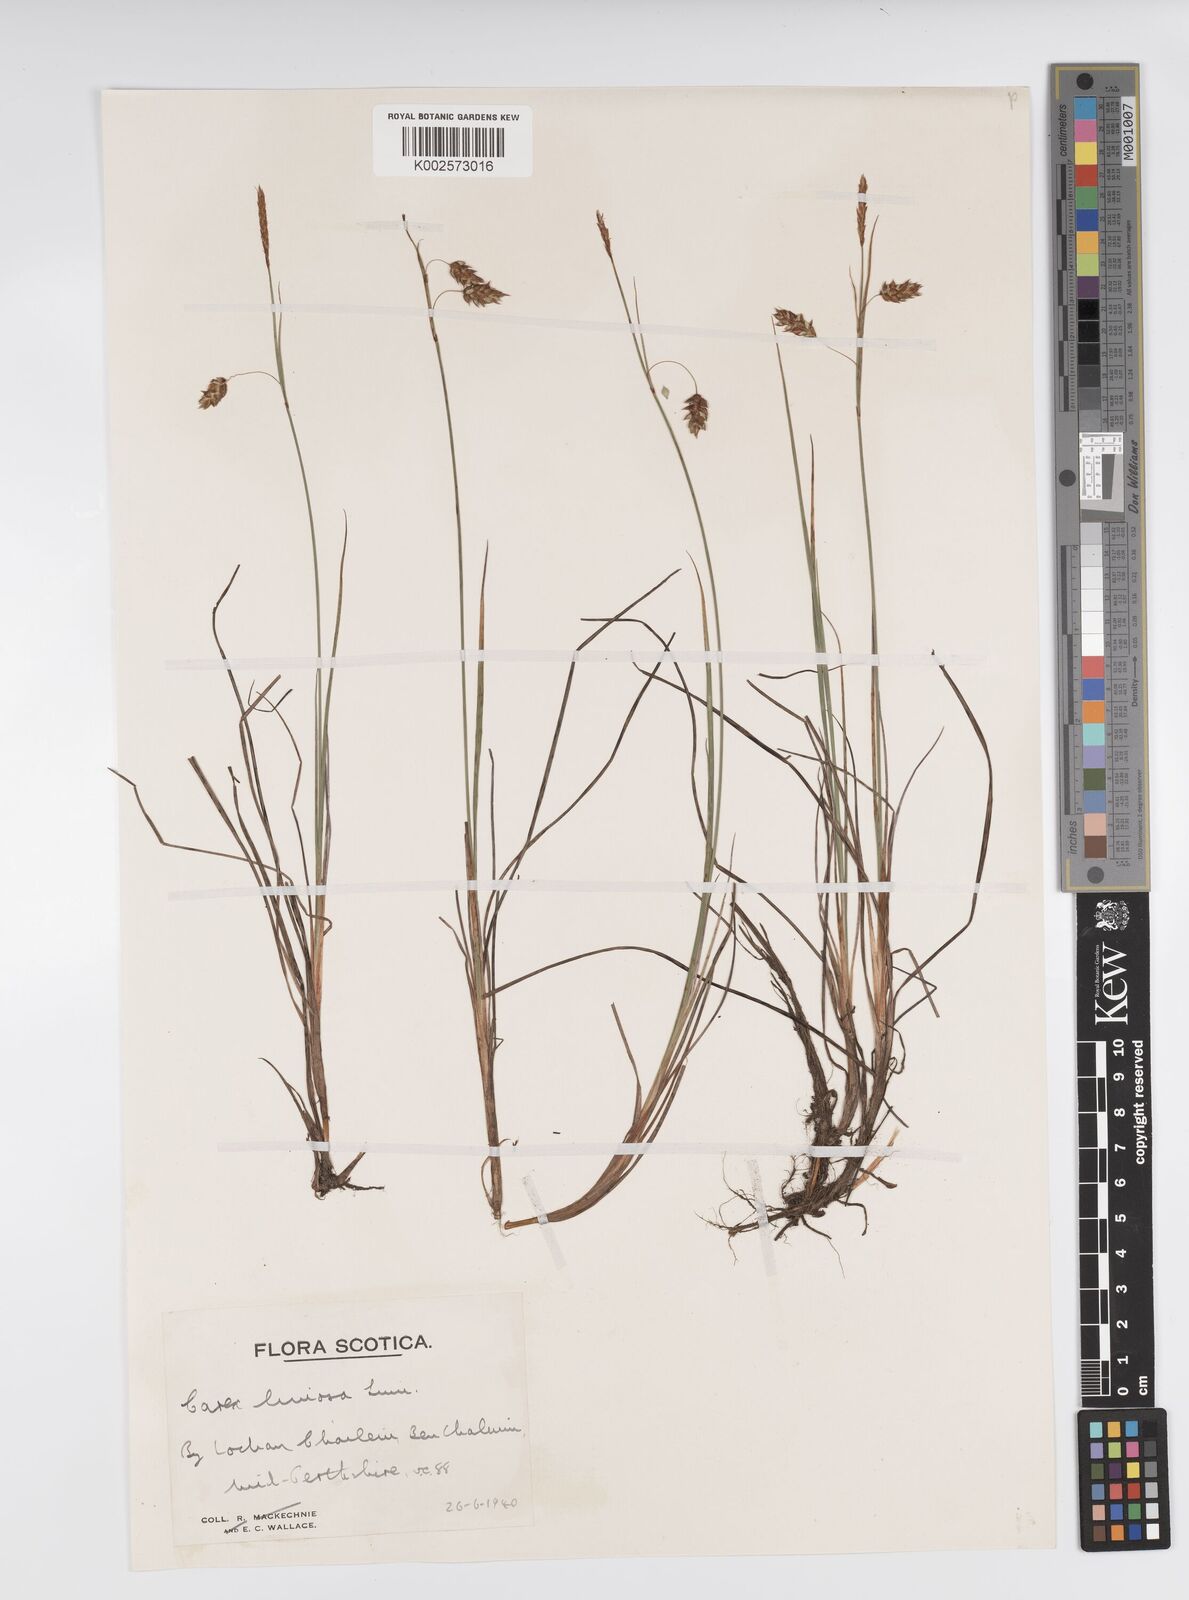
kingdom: Plantae
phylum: Tracheophyta
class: Liliopsida
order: Poales
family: Cyperaceae
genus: Carex
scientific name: Carex limosa
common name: Bog sedge
